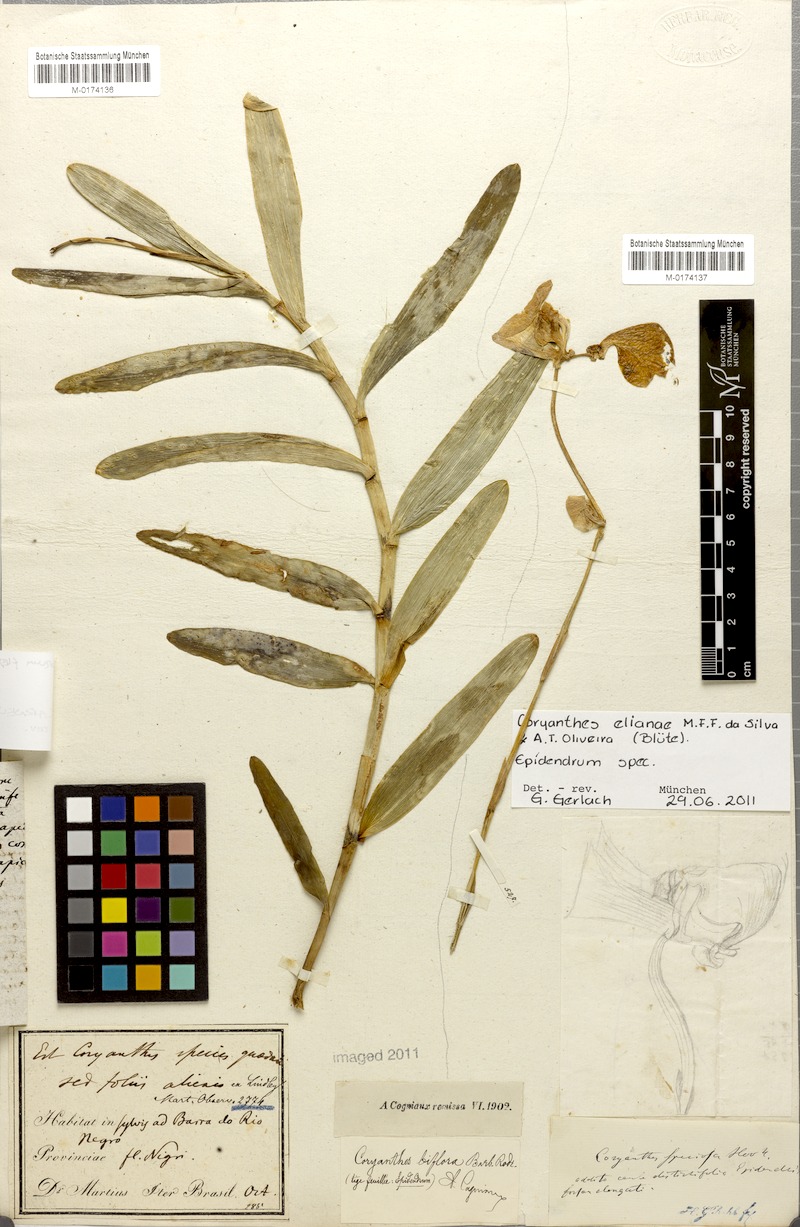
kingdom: Plantae
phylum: Tracheophyta
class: Liliopsida
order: Asparagales
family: Orchidaceae
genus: Coryanthes
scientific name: Coryanthes elianae
